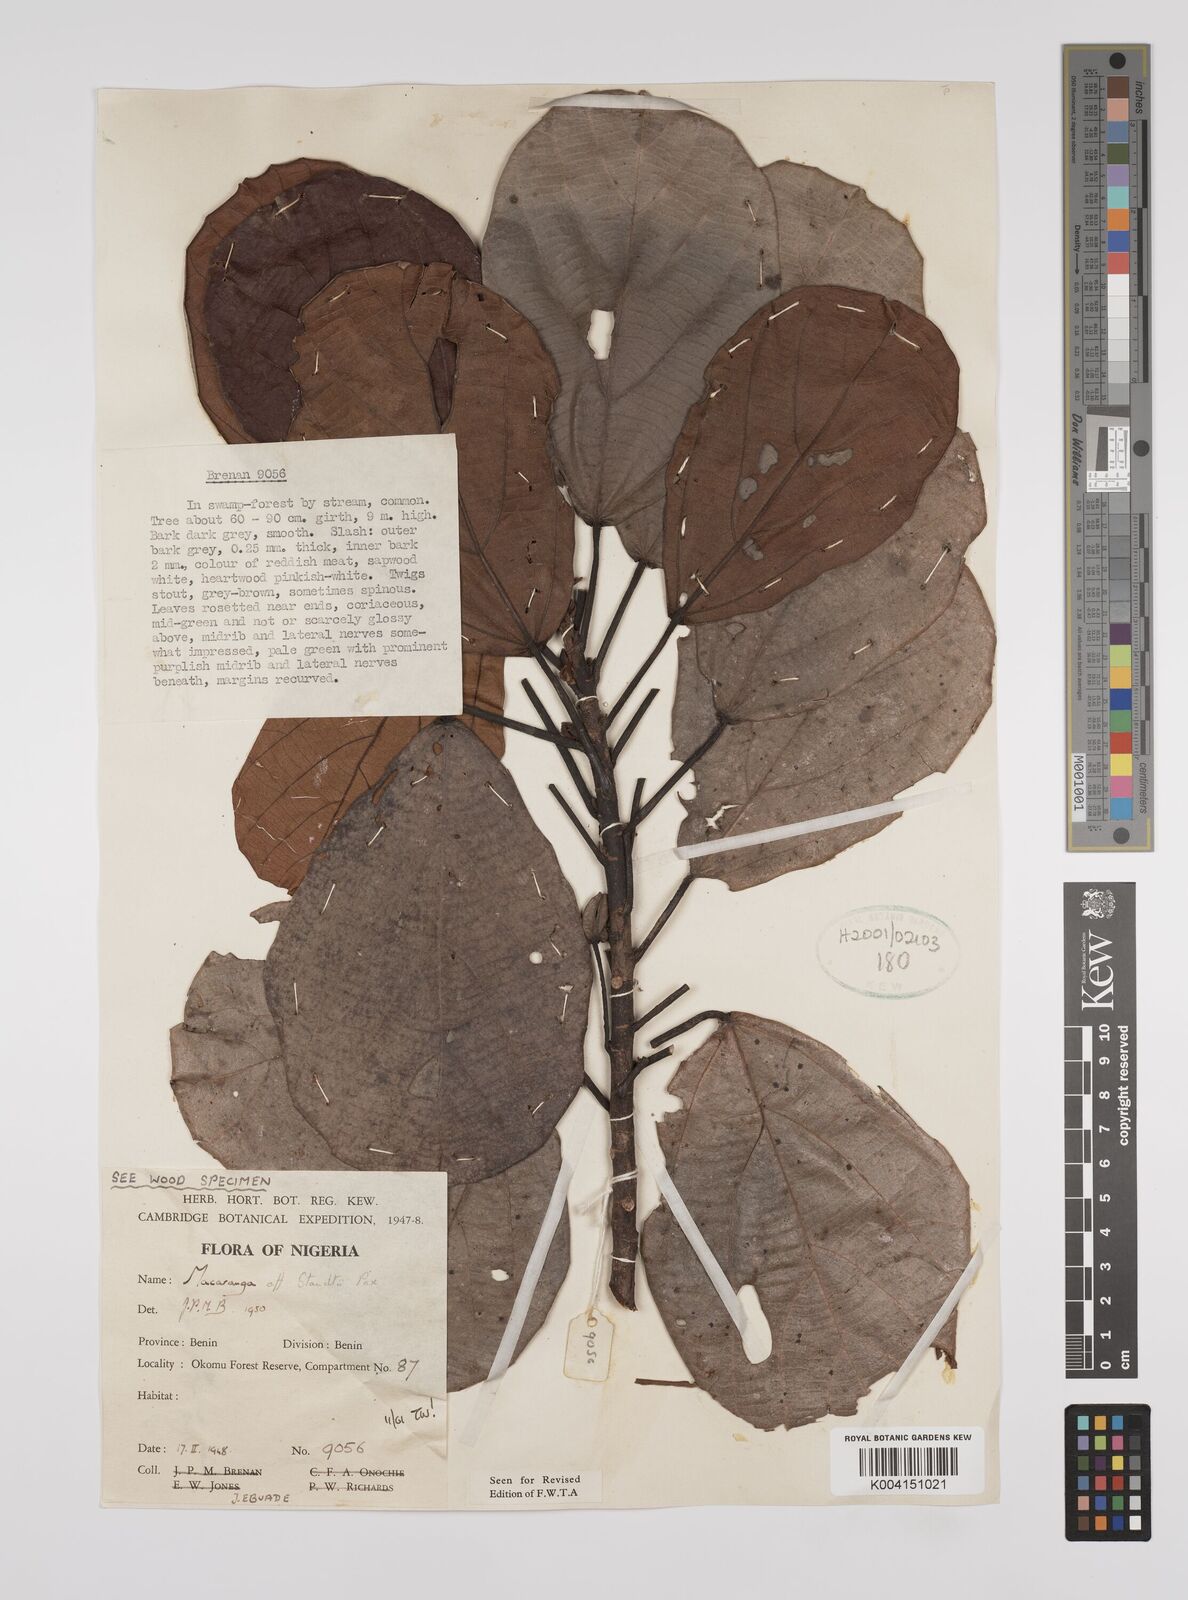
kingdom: Plantae
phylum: Tracheophyta
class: Magnoliopsida
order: Malpighiales
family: Euphorbiaceae
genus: Macaranga
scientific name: Macaranga staudtii
